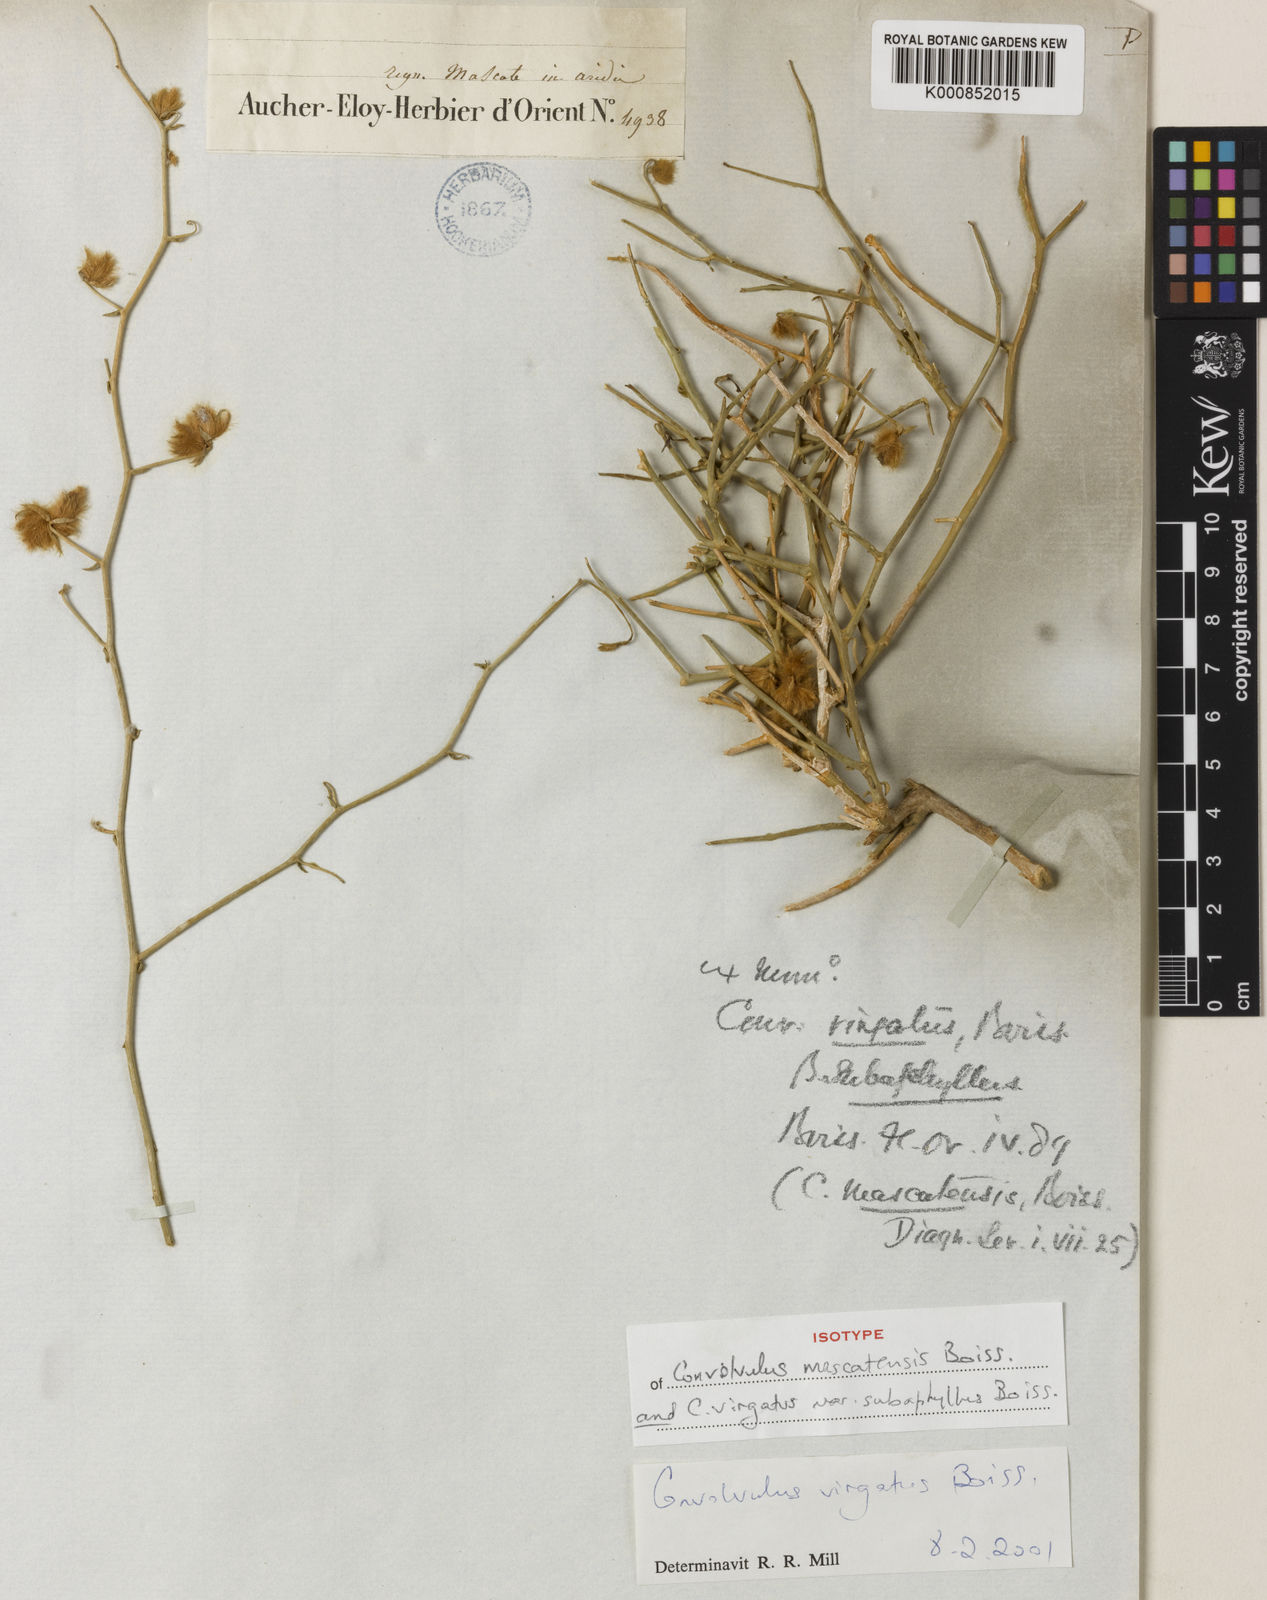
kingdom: Plantae
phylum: Tracheophyta
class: Magnoliopsida
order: Solanales
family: Convolvulaceae
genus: Convolvulus
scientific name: Convolvulus virgatus
